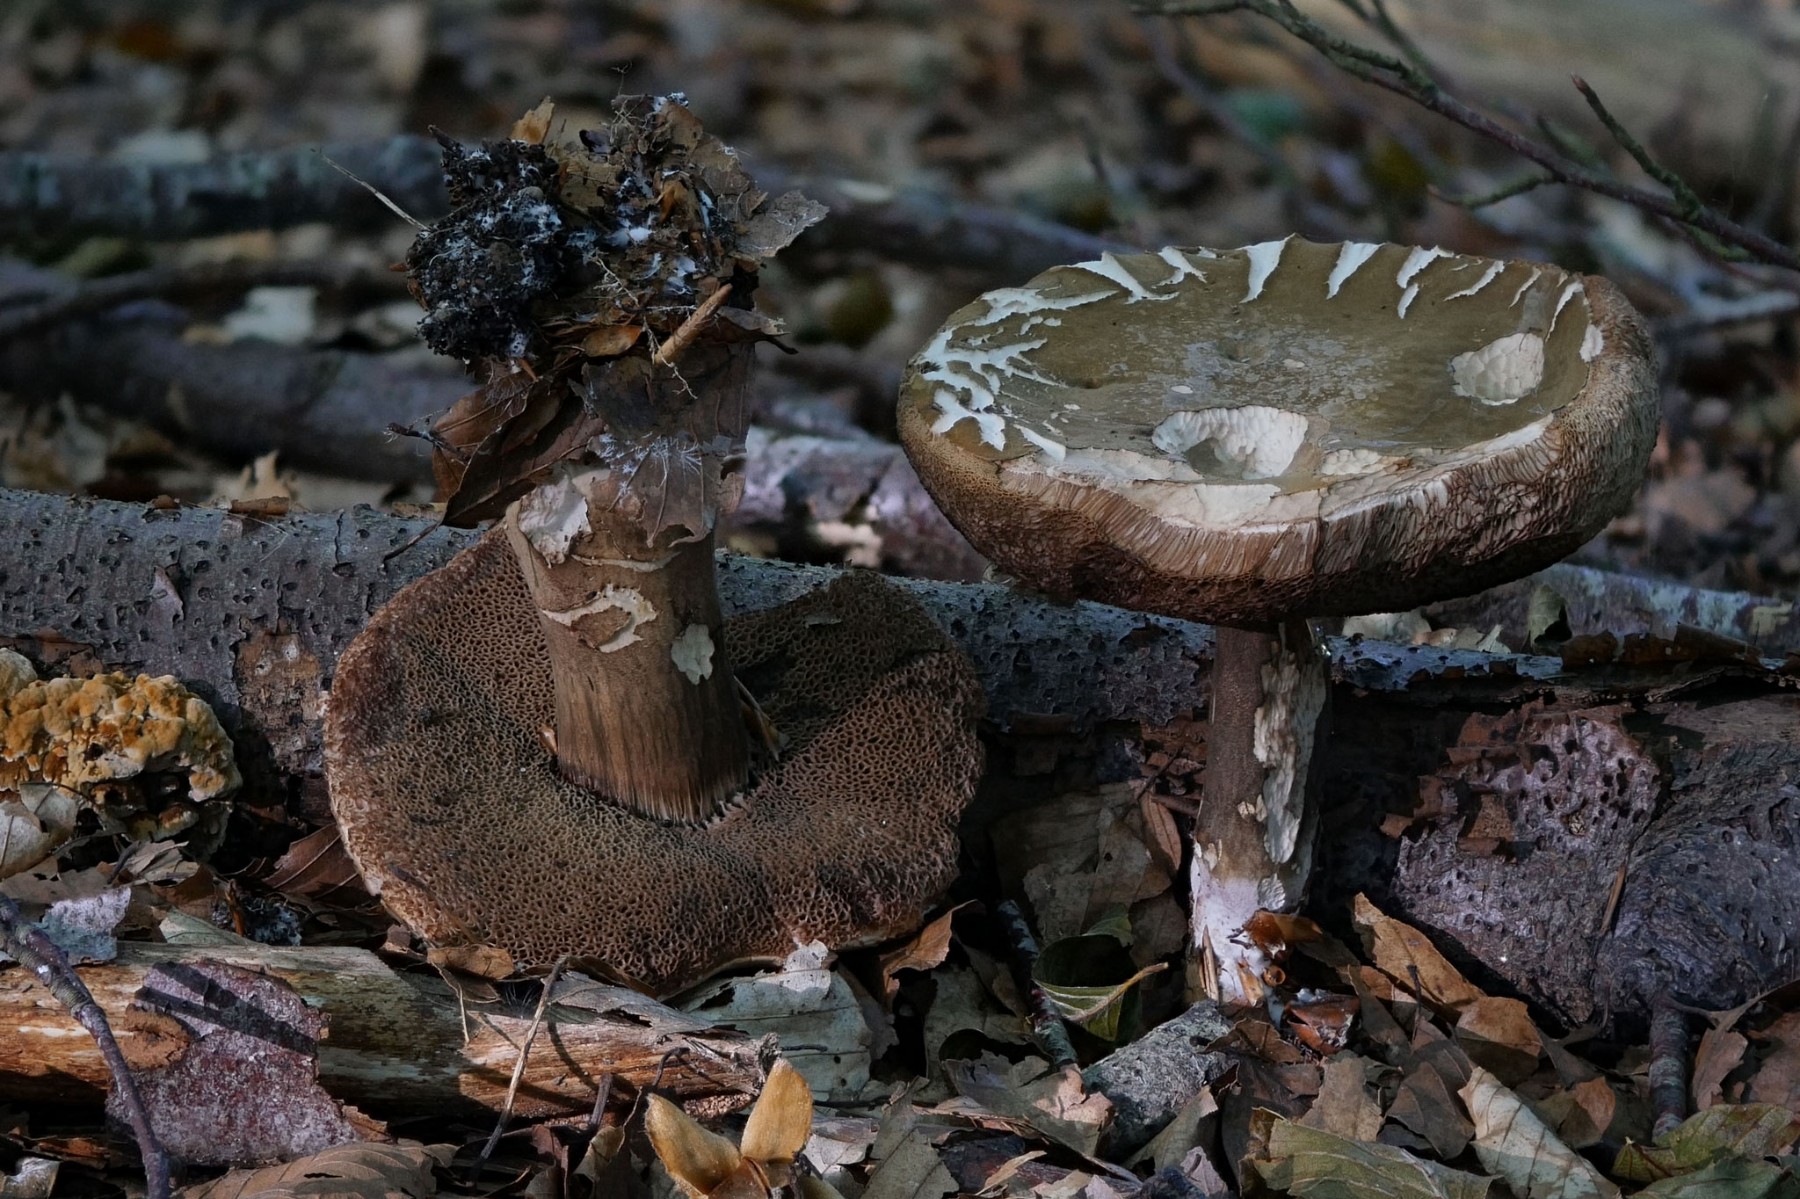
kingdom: Fungi
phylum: Basidiomycota
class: Agaricomycetes
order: Boletales
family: Boletaceae
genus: Porphyrellus
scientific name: Porphyrellus porphyrosporus
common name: sodrørhat
